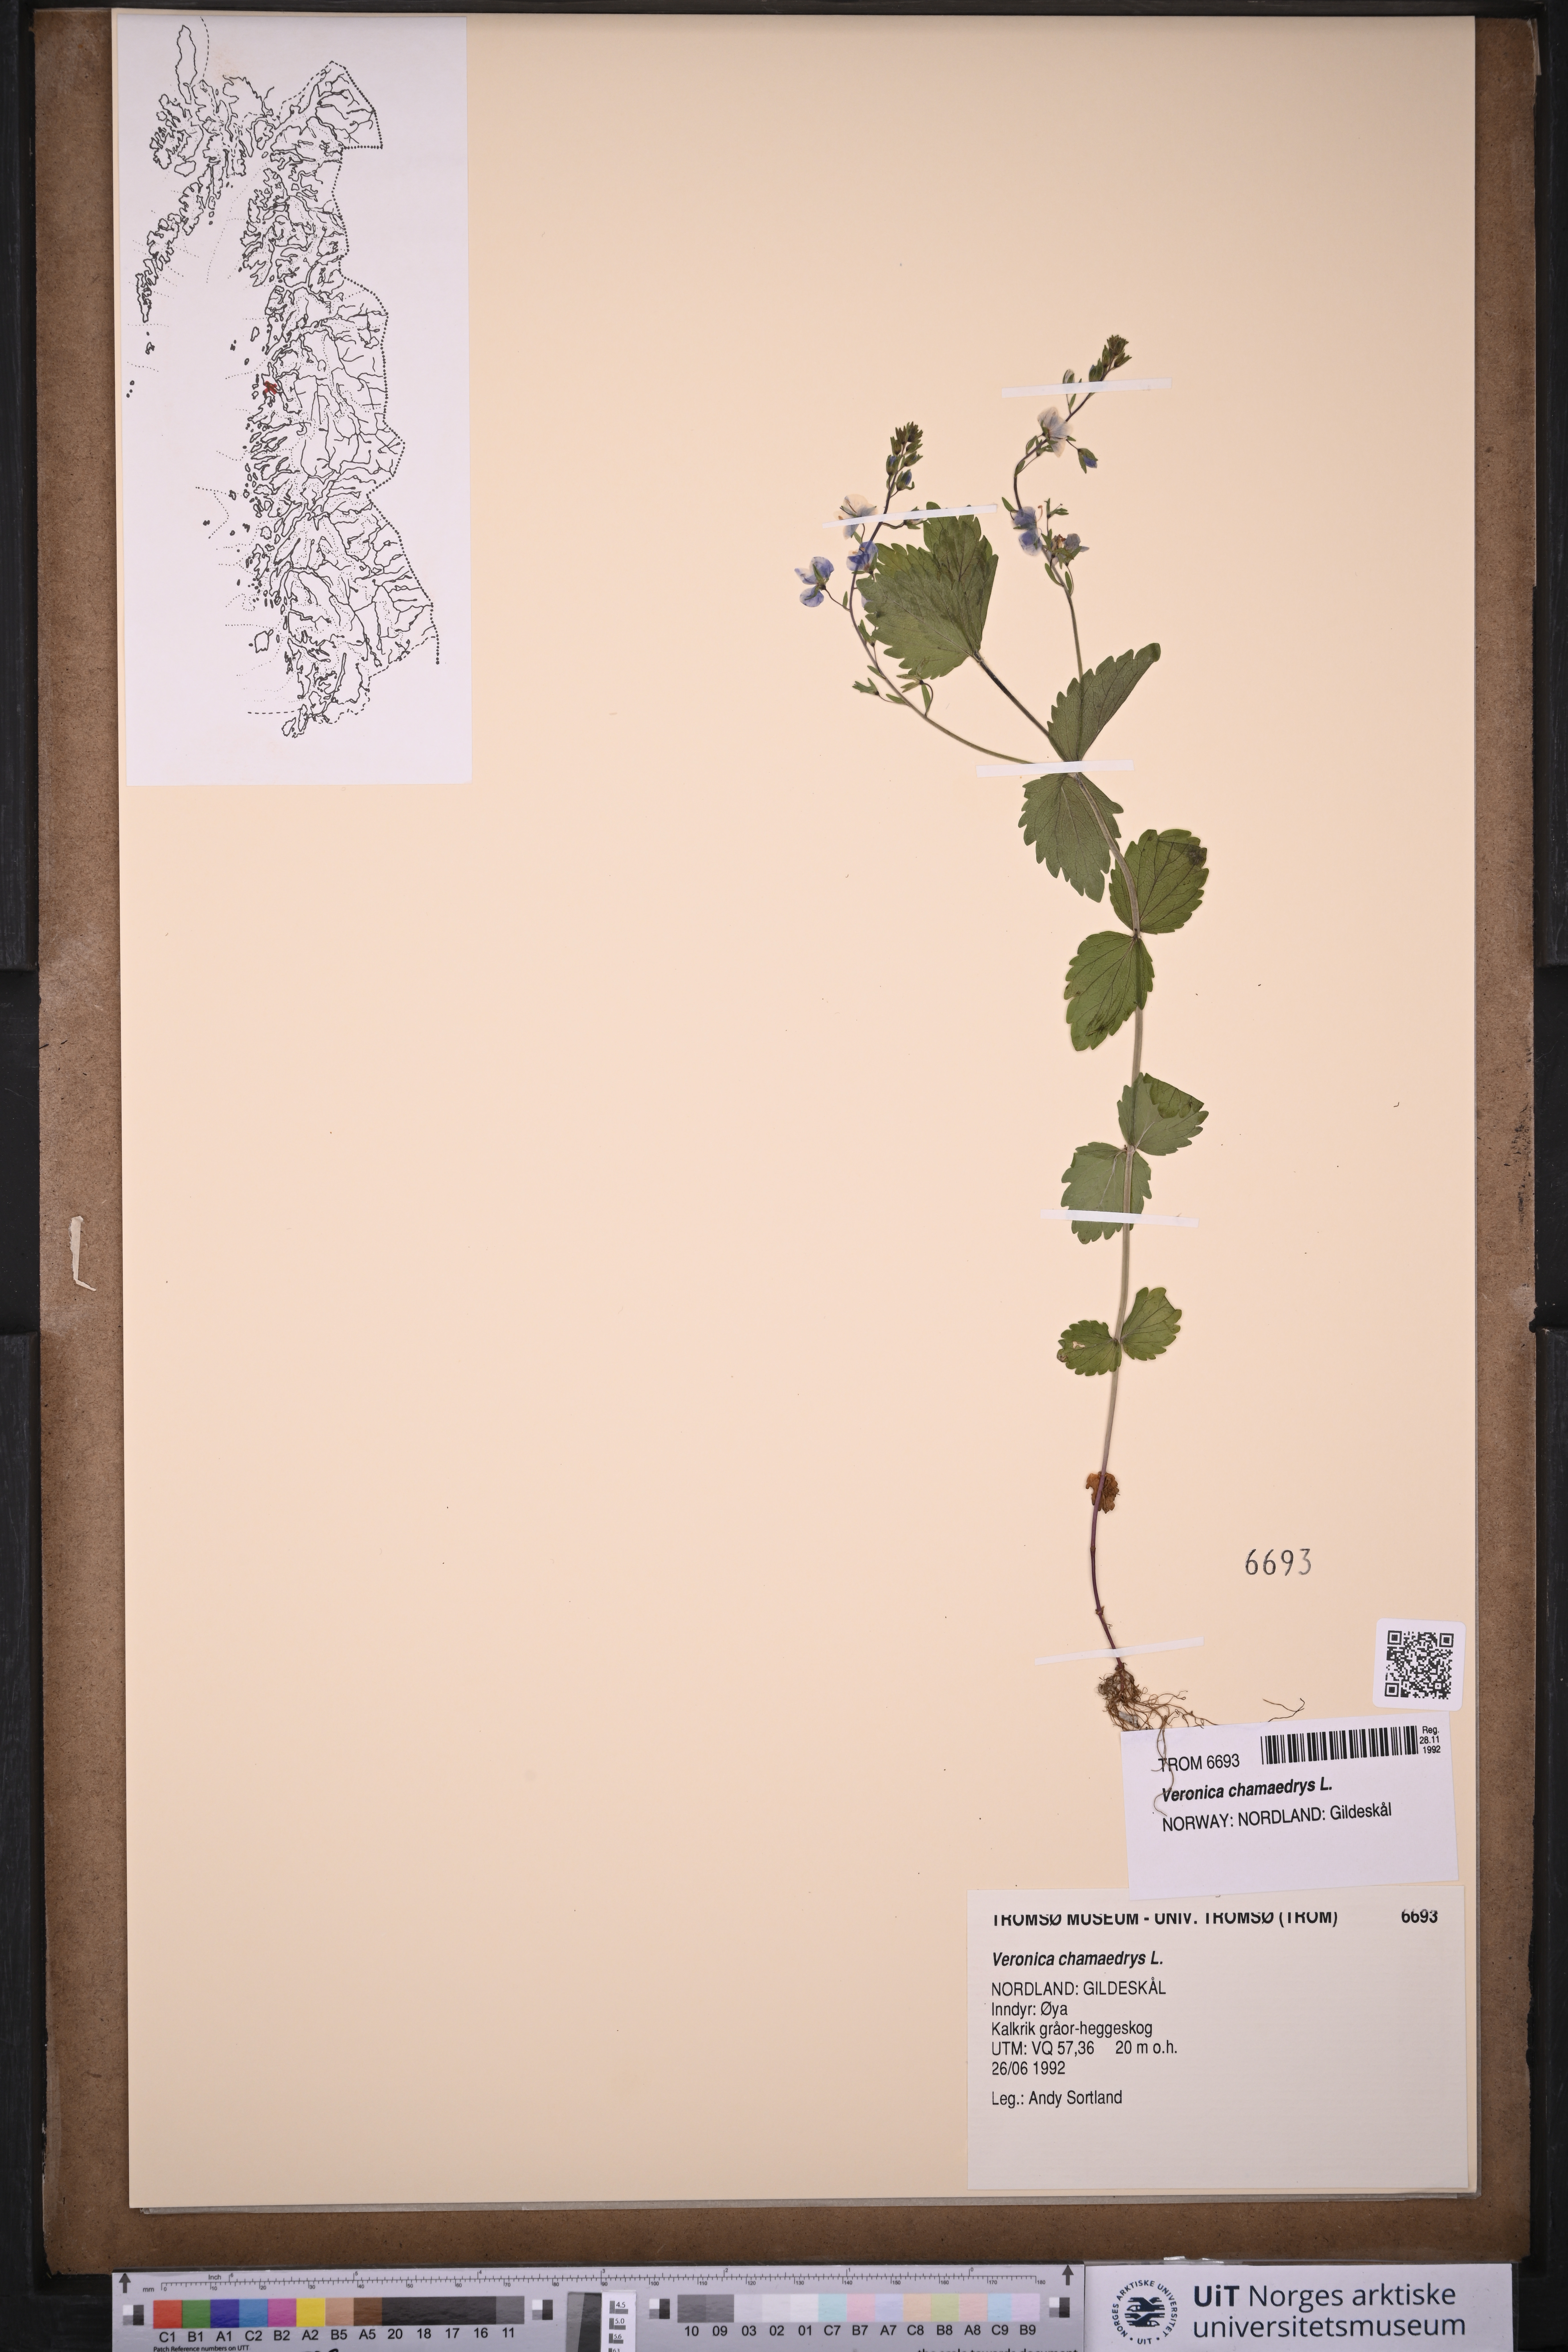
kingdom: Plantae
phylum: Tracheophyta
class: Magnoliopsida
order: Lamiales
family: Plantaginaceae
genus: Veronica
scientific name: Veronica chamaedrys
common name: Germander speedwell
